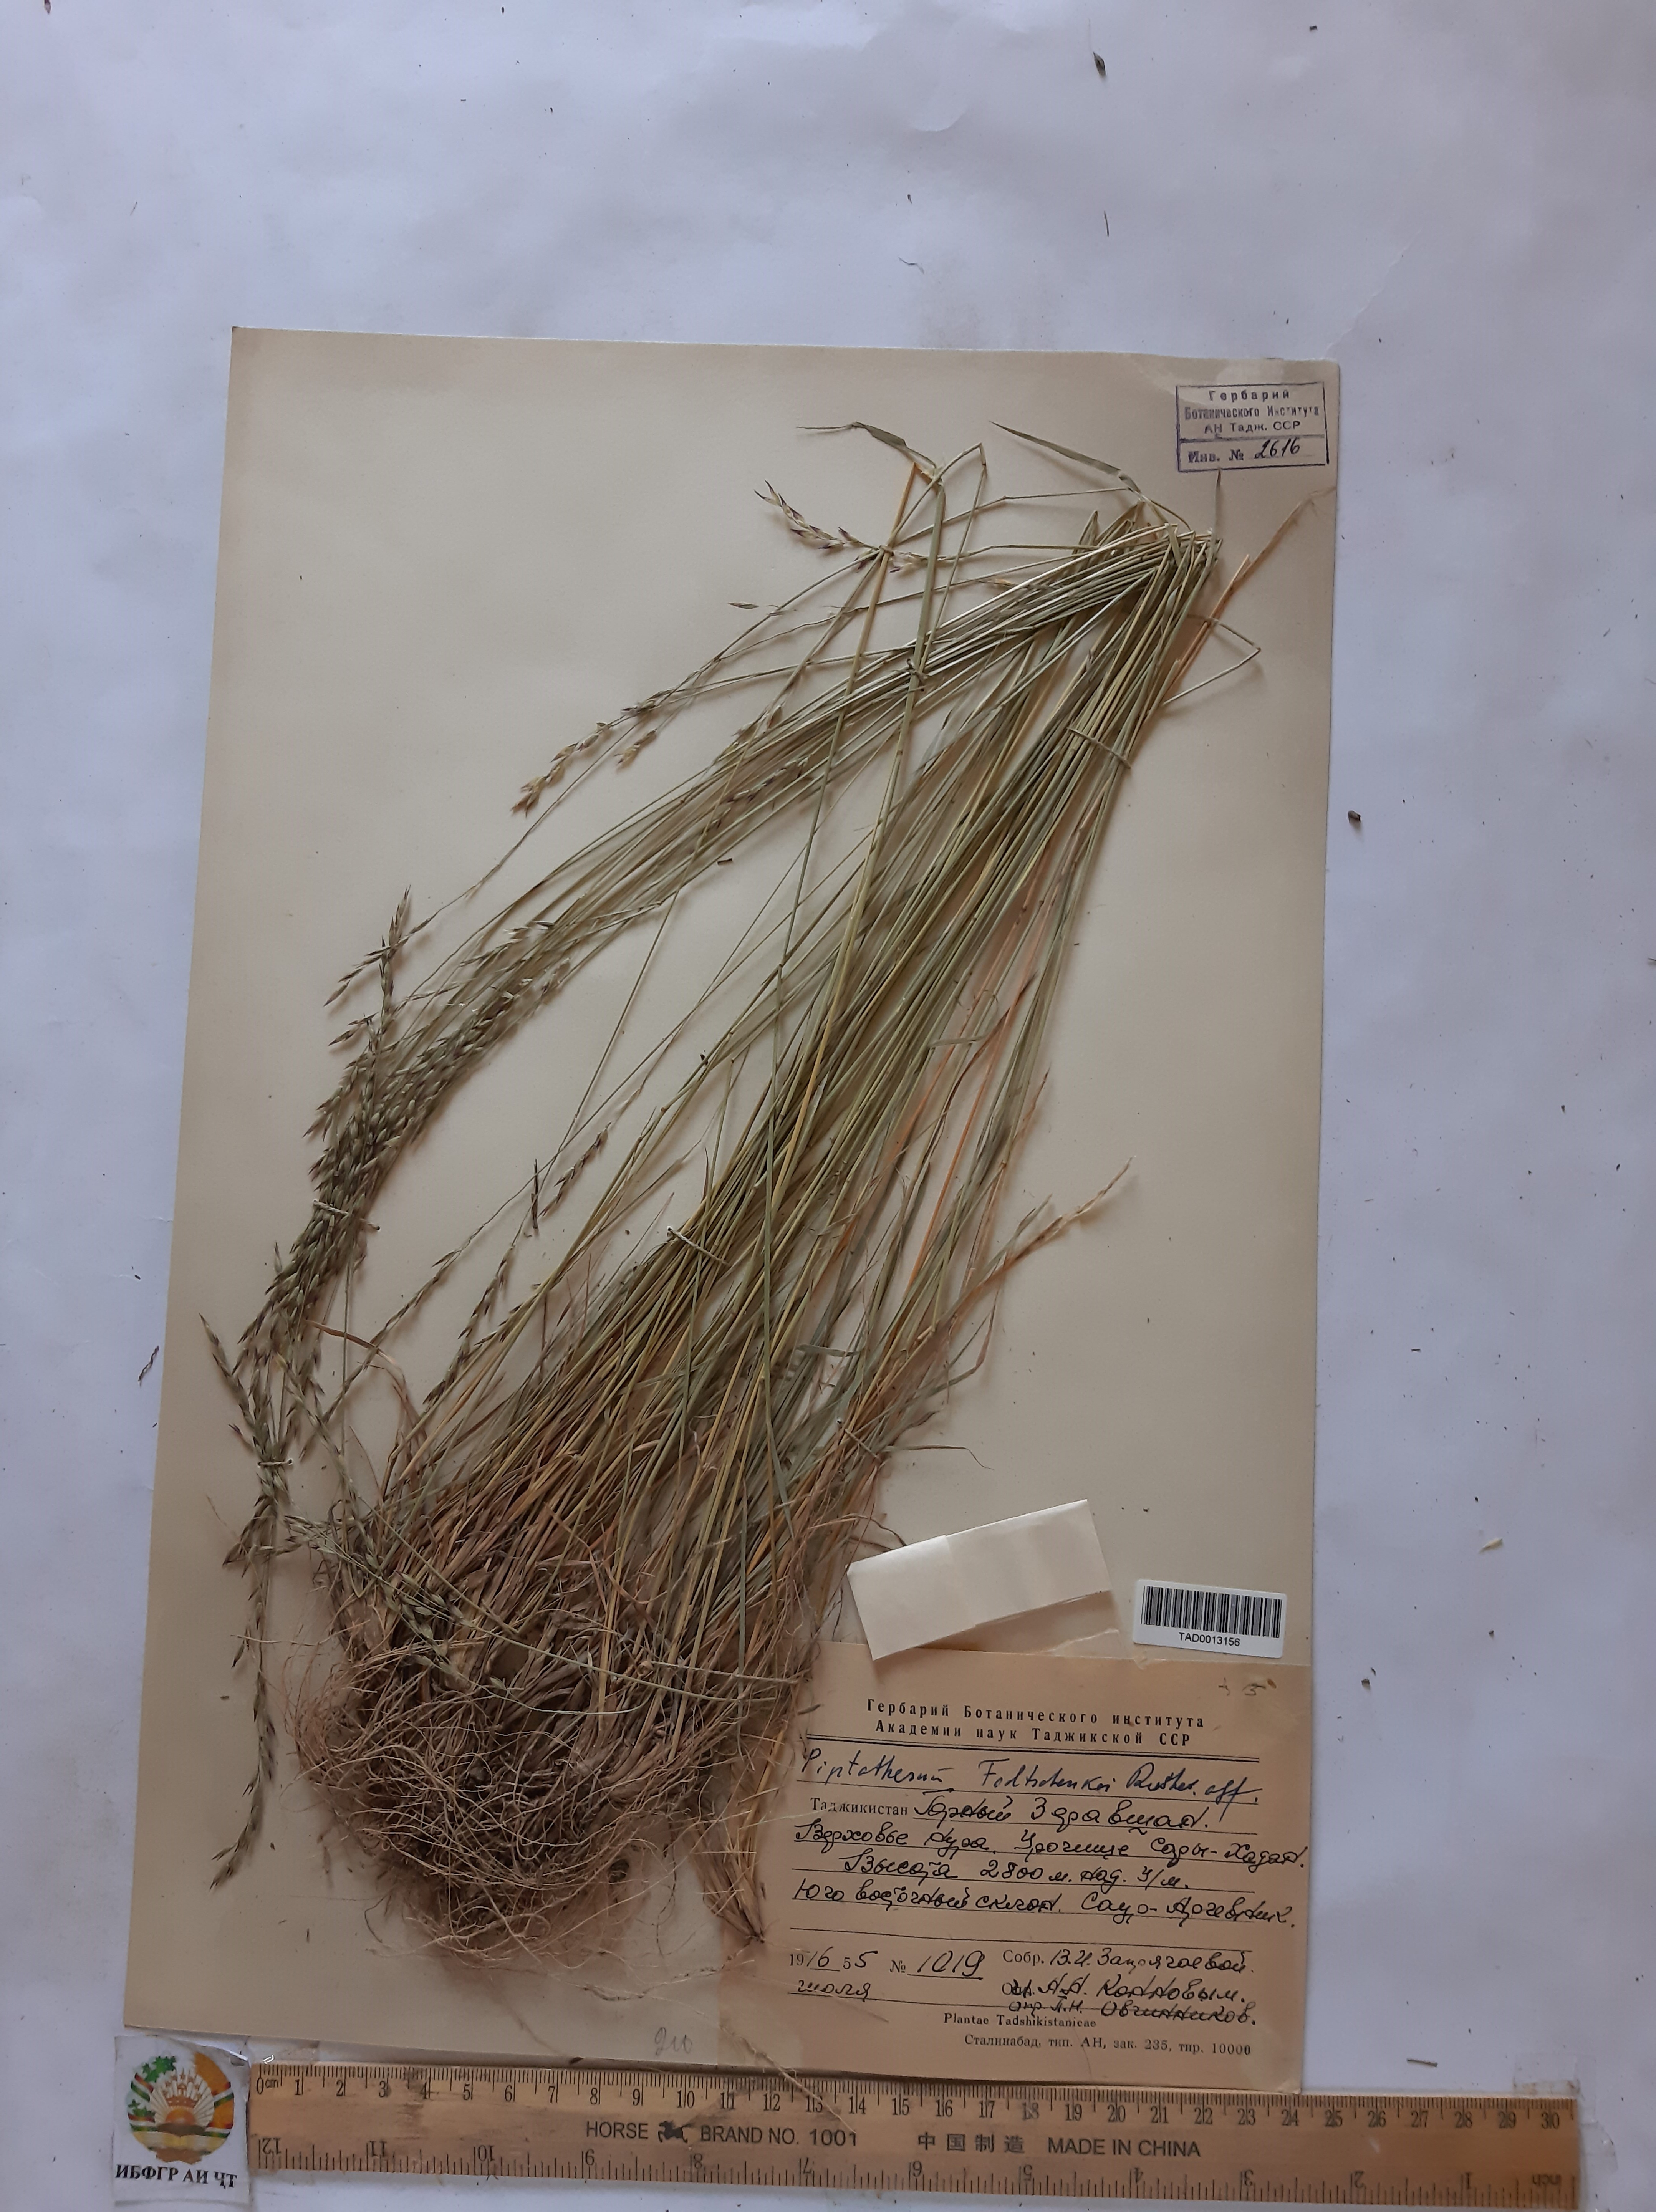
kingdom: Plantae
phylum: Tracheophyta
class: Liliopsida
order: Poales
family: Poaceae
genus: Piptatherum
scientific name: Piptatherum sogdianum
